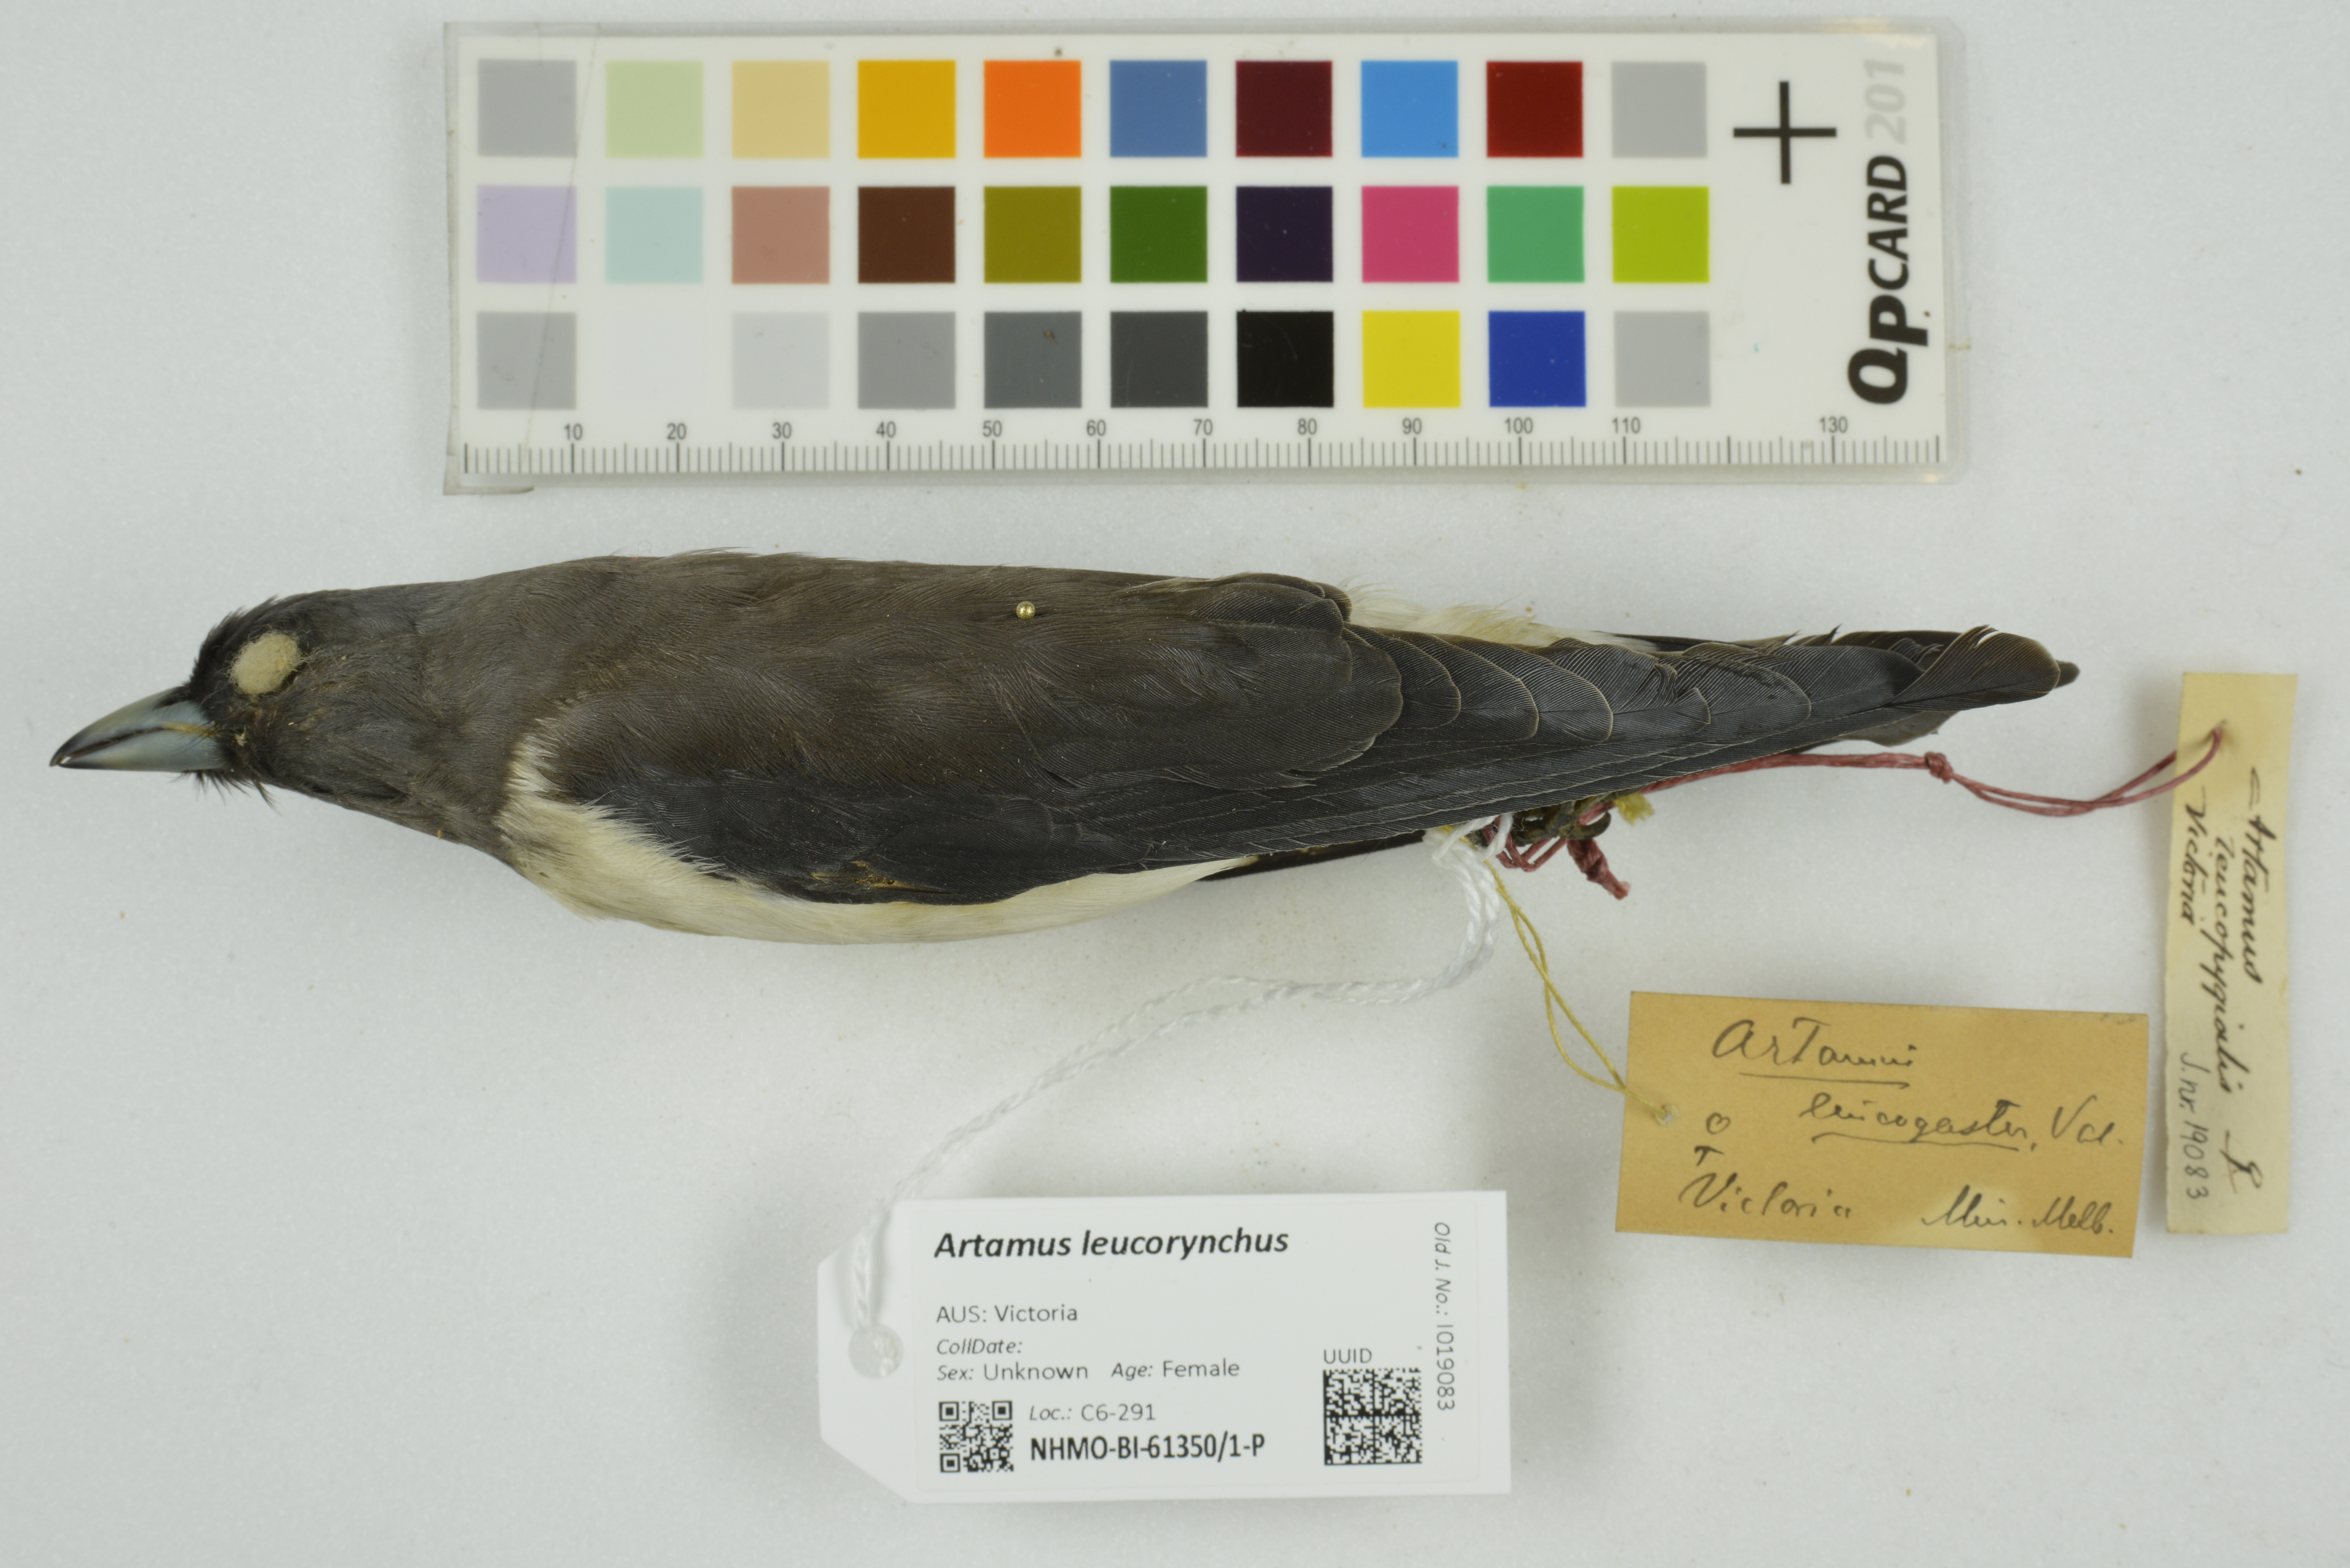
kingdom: Animalia
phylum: Chordata
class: Aves
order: Passeriformes
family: Artamidae
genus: Artamus
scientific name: Artamus leucoryn
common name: White-breasted woodswallow
